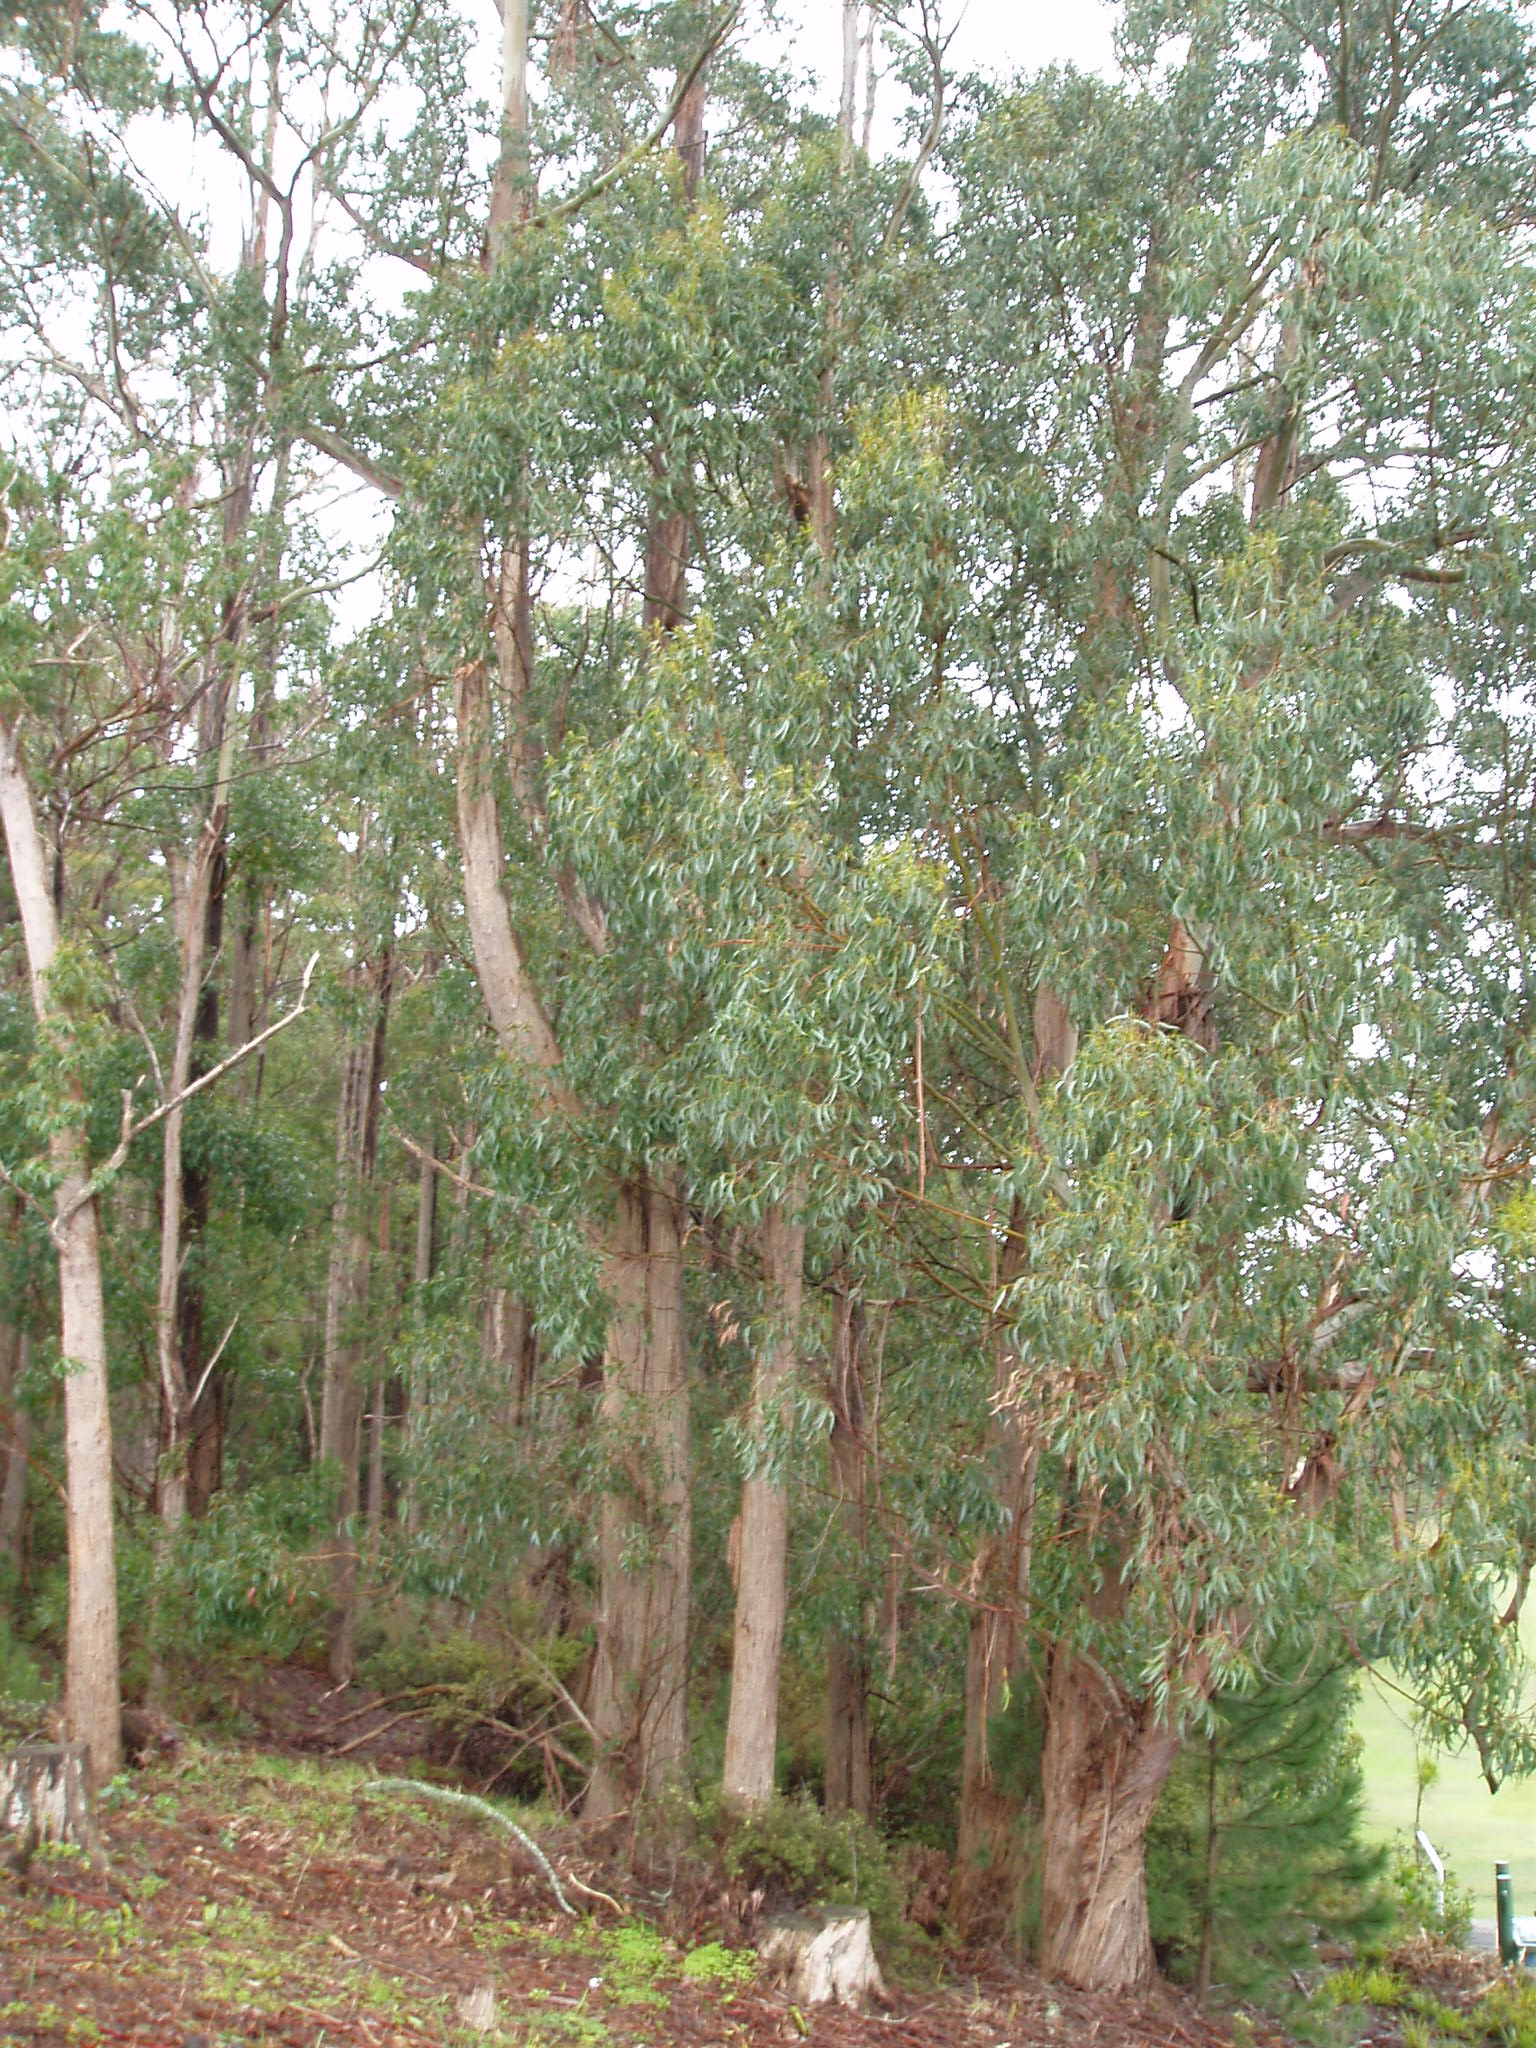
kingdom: Plantae
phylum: Tracheophyta
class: Magnoliopsida
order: Myrtales
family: Myrtaceae
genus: Eucalyptus
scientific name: Eucalyptus fastigata
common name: Brown barrel
